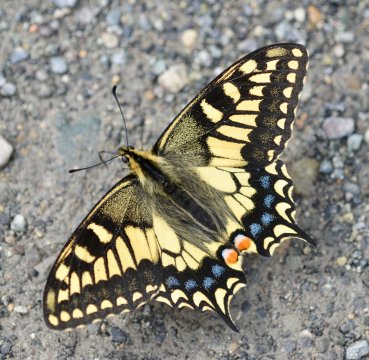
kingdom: Animalia
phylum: Arthropoda
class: Insecta
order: Lepidoptera
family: Papilionidae
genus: Papilio
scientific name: Papilio machaon
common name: Old World Swallowtail
